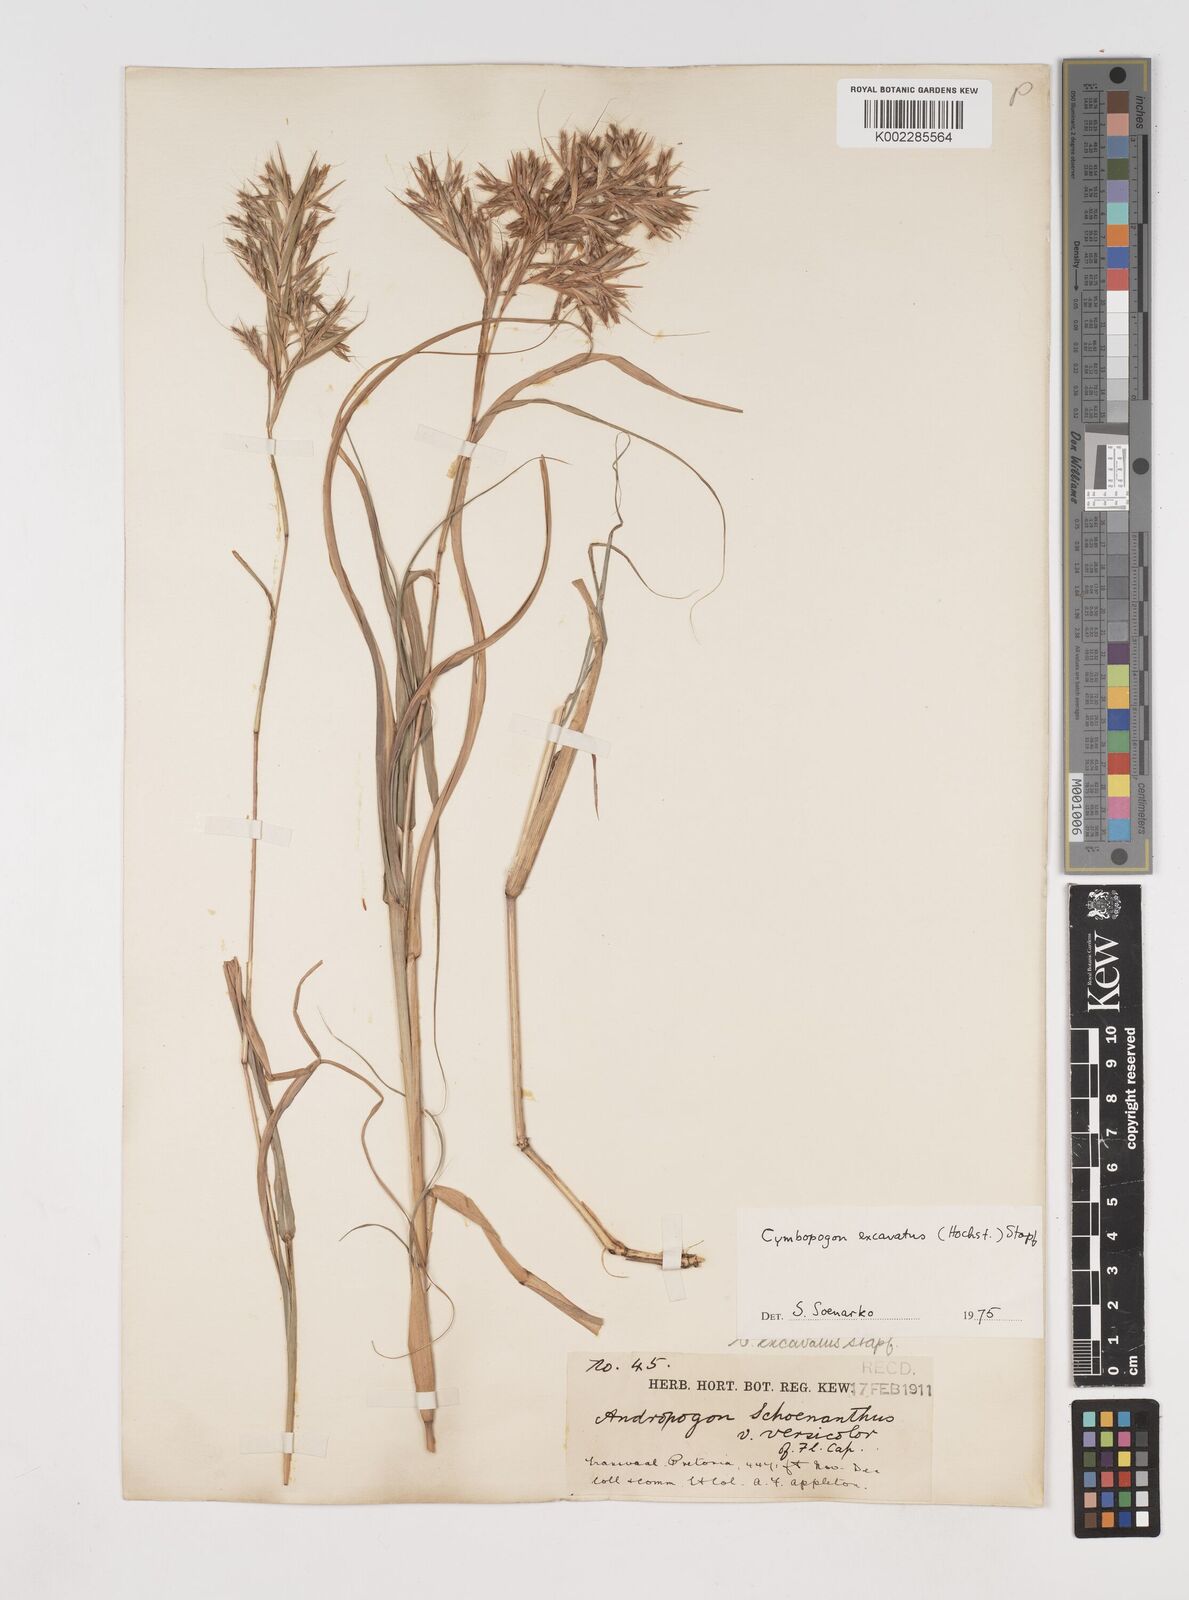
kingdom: Plantae
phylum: Tracheophyta
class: Liliopsida
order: Poales
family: Poaceae
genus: Cymbopogon
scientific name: Cymbopogon caesius
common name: Kachi grass
